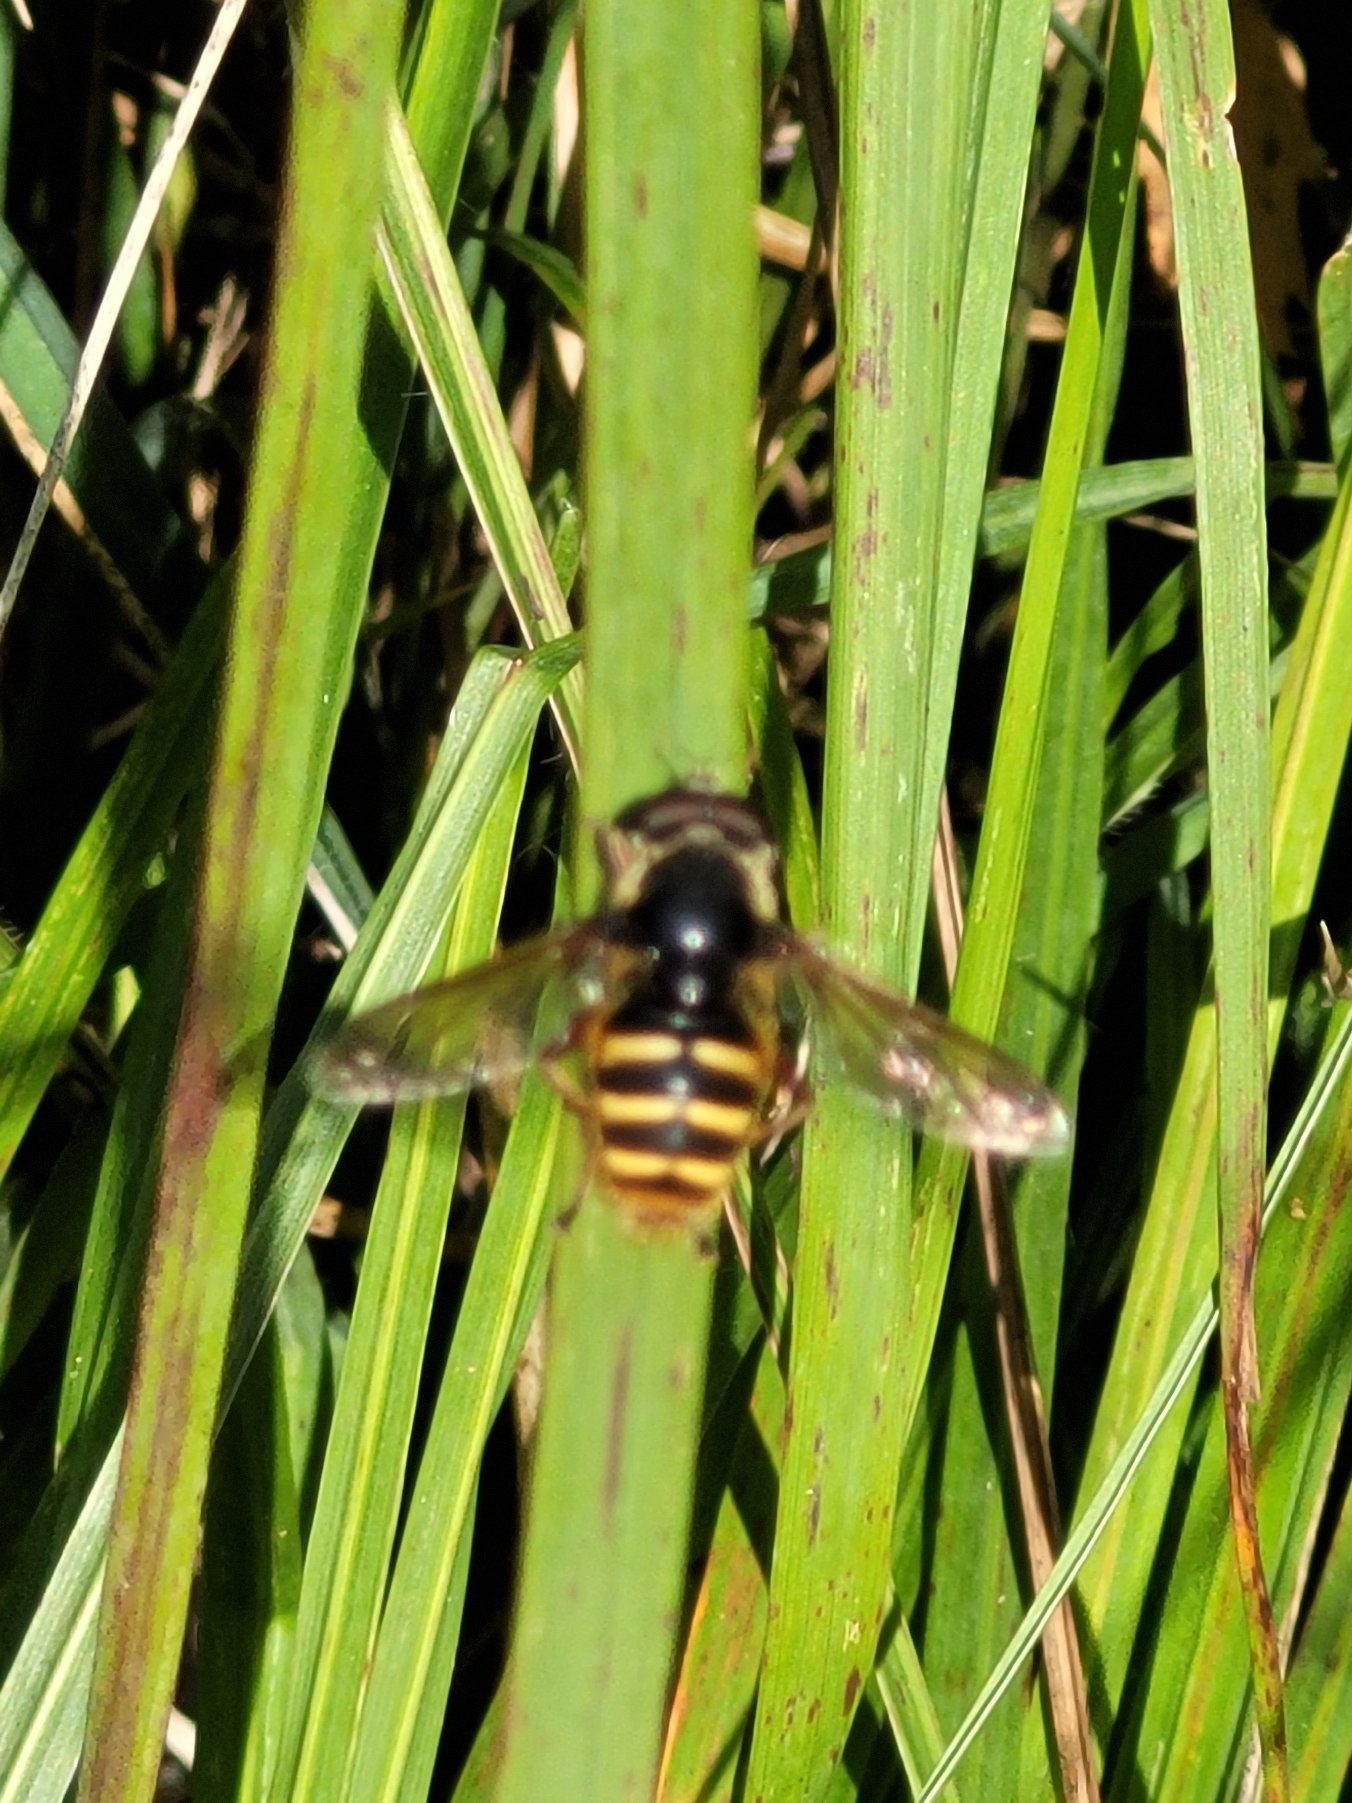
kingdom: Animalia
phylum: Arthropoda
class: Insecta
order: Diptera
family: Syrphidae
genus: Sericomyia
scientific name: Sericomyia silentis
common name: Tørve-silkesvirreflue
